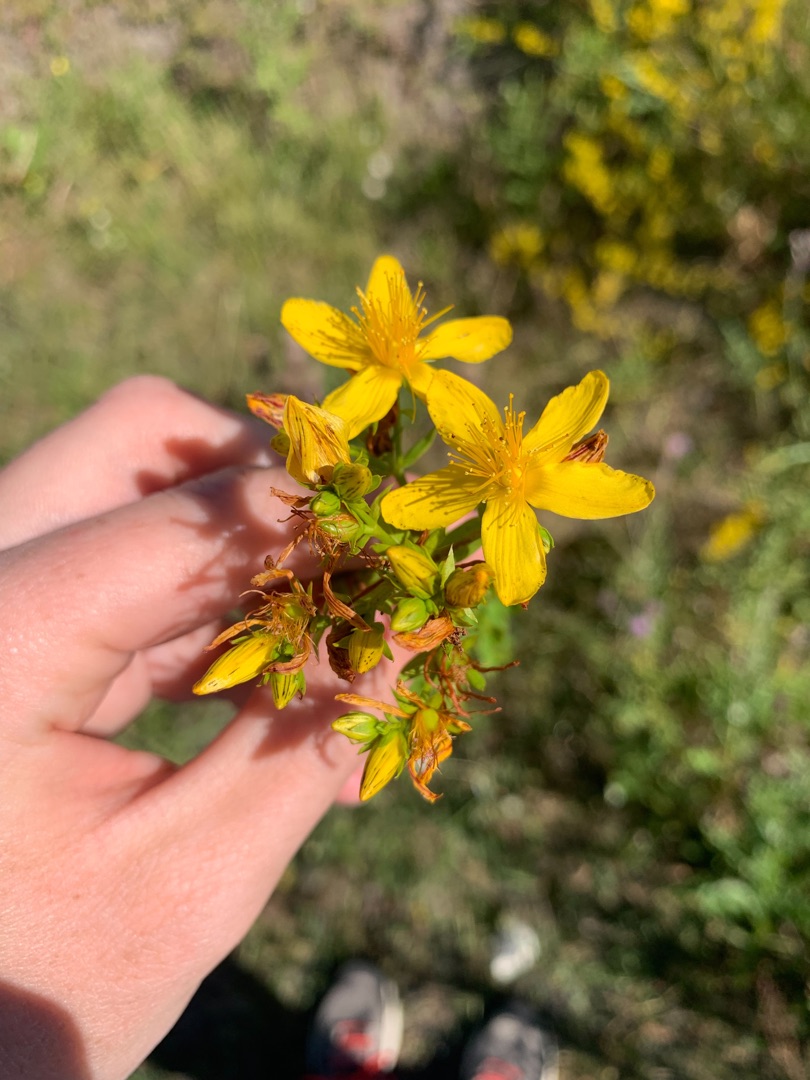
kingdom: Plantae
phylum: Tracheophyta
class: Magnoliopsida
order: Malpighiales
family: Hypericaceae
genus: Hypericum
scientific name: Hypericum perforatum
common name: Prikbladet perikon
